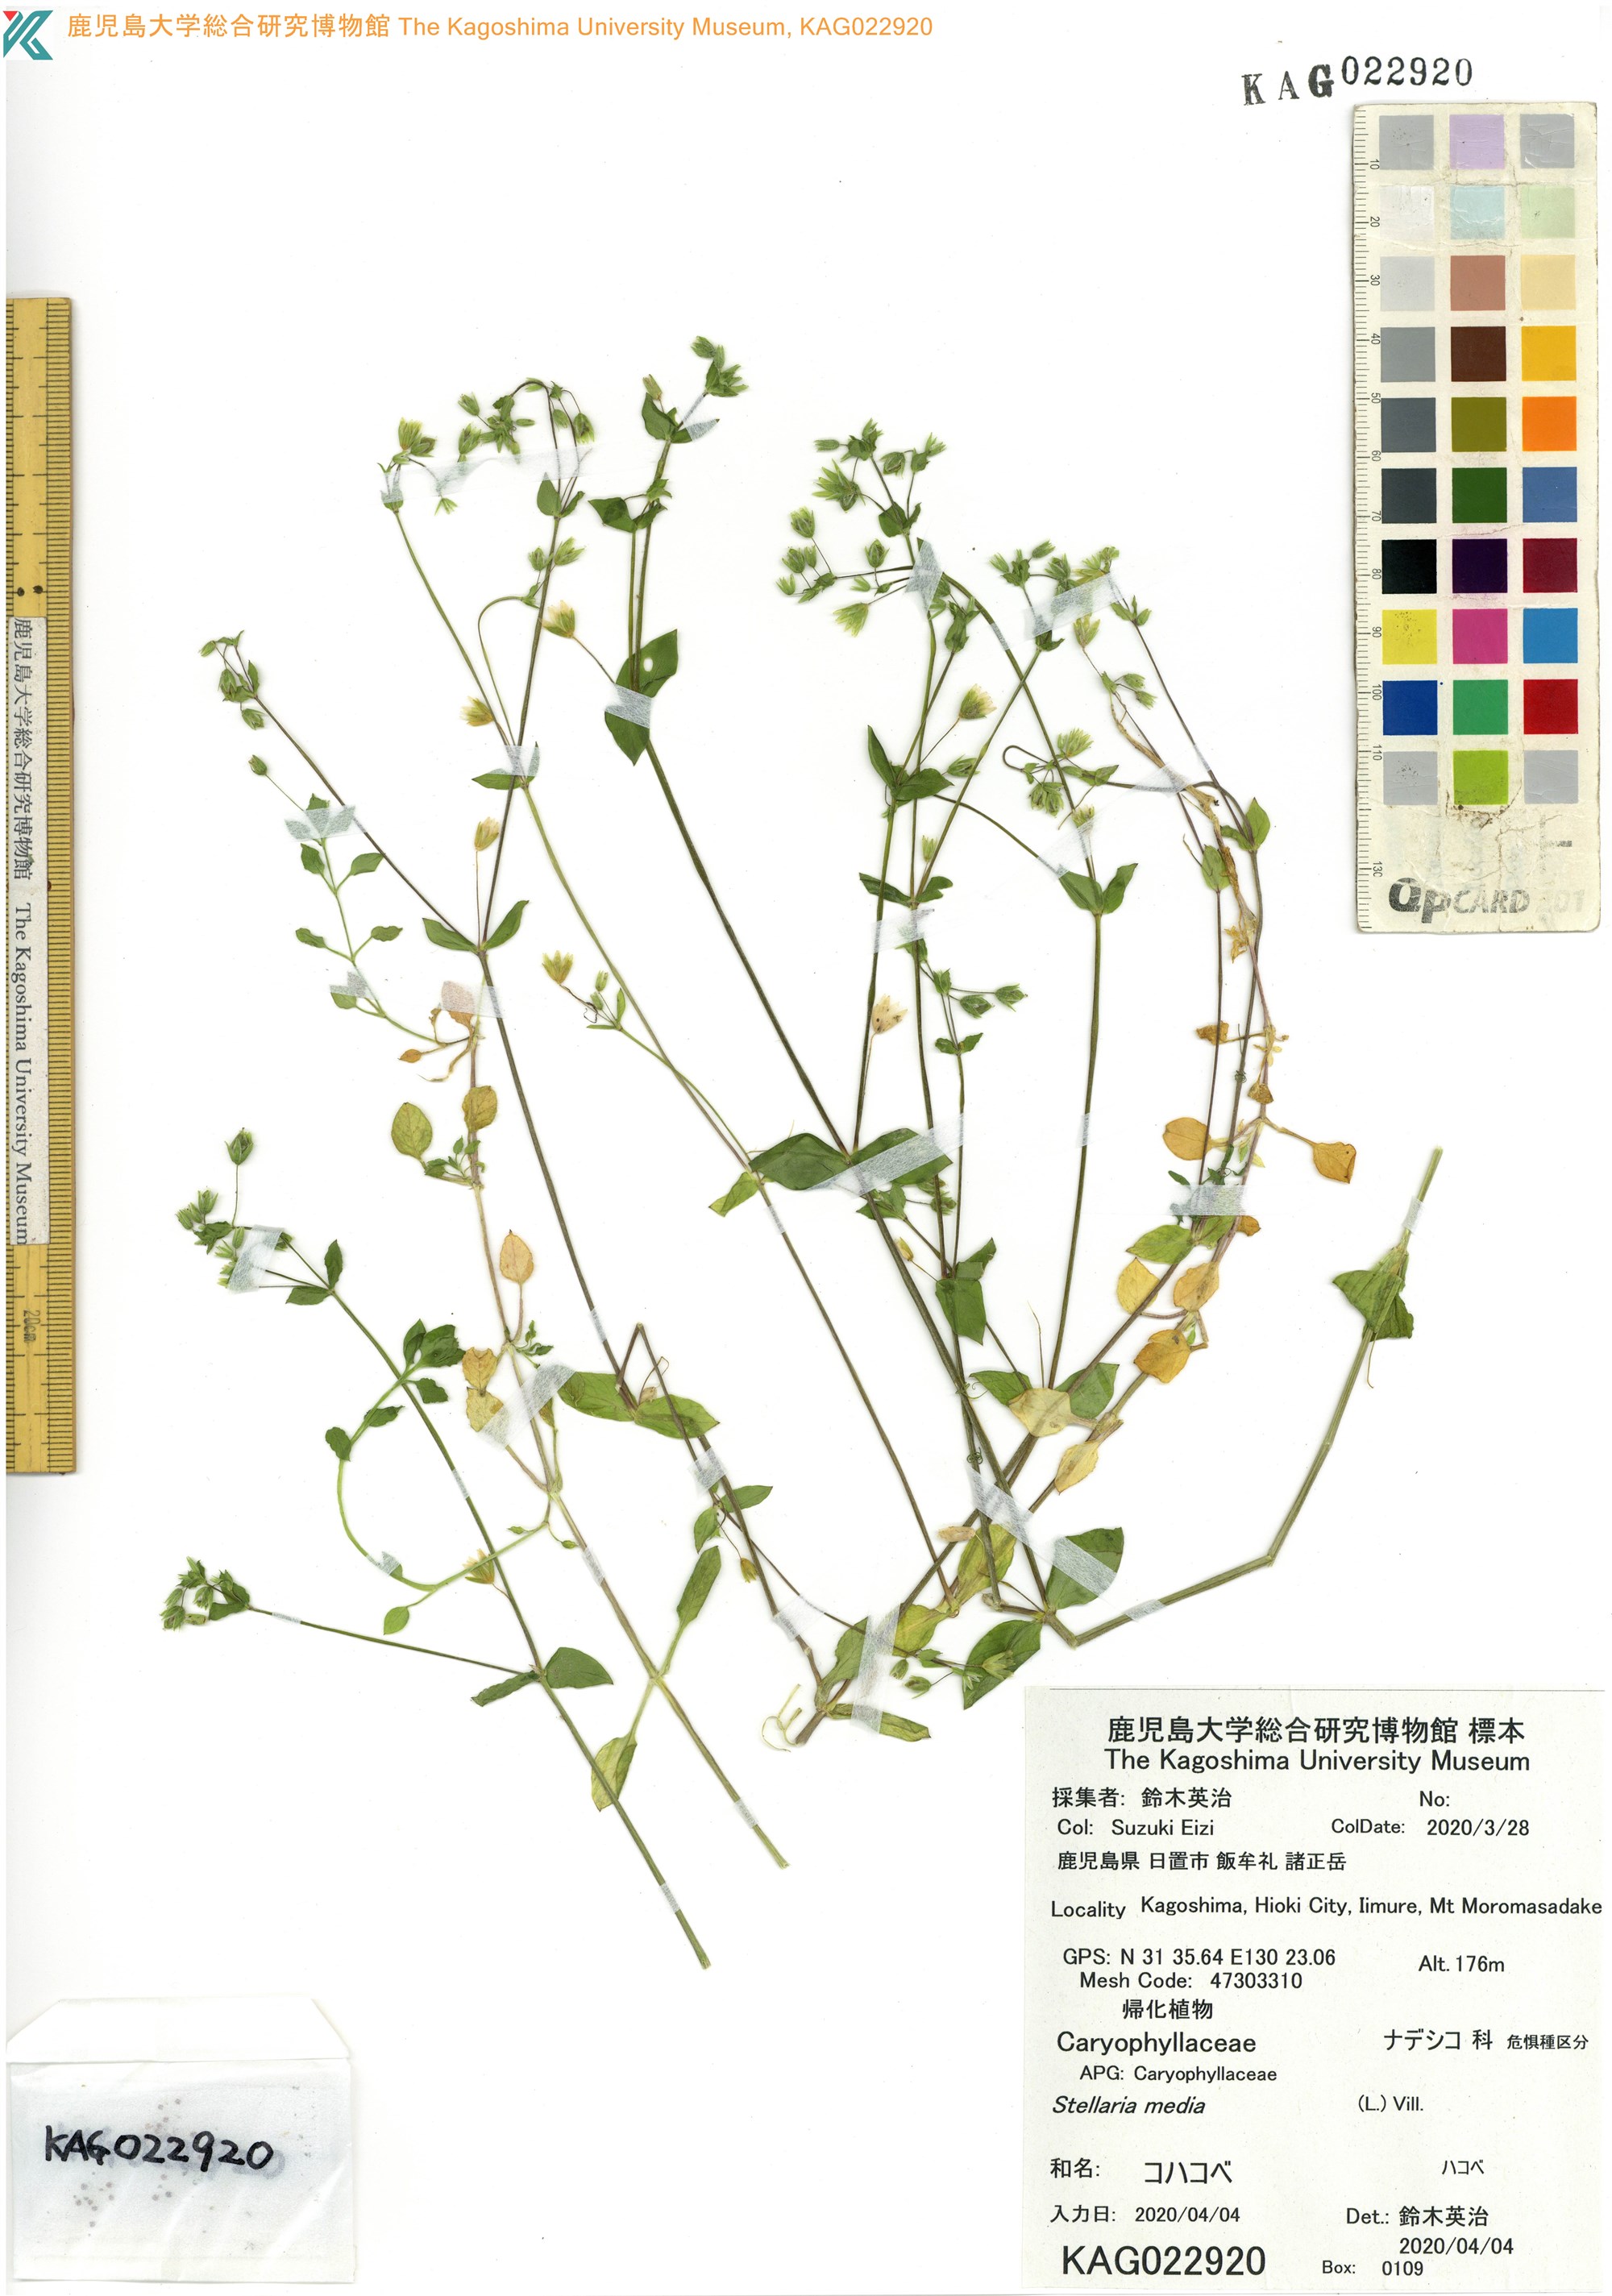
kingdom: Plantae
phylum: Tracheophyta
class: Magnoliopsida
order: Caryophyllales
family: Caryophyllaceae
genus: Stellaria
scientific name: Stellaria media
